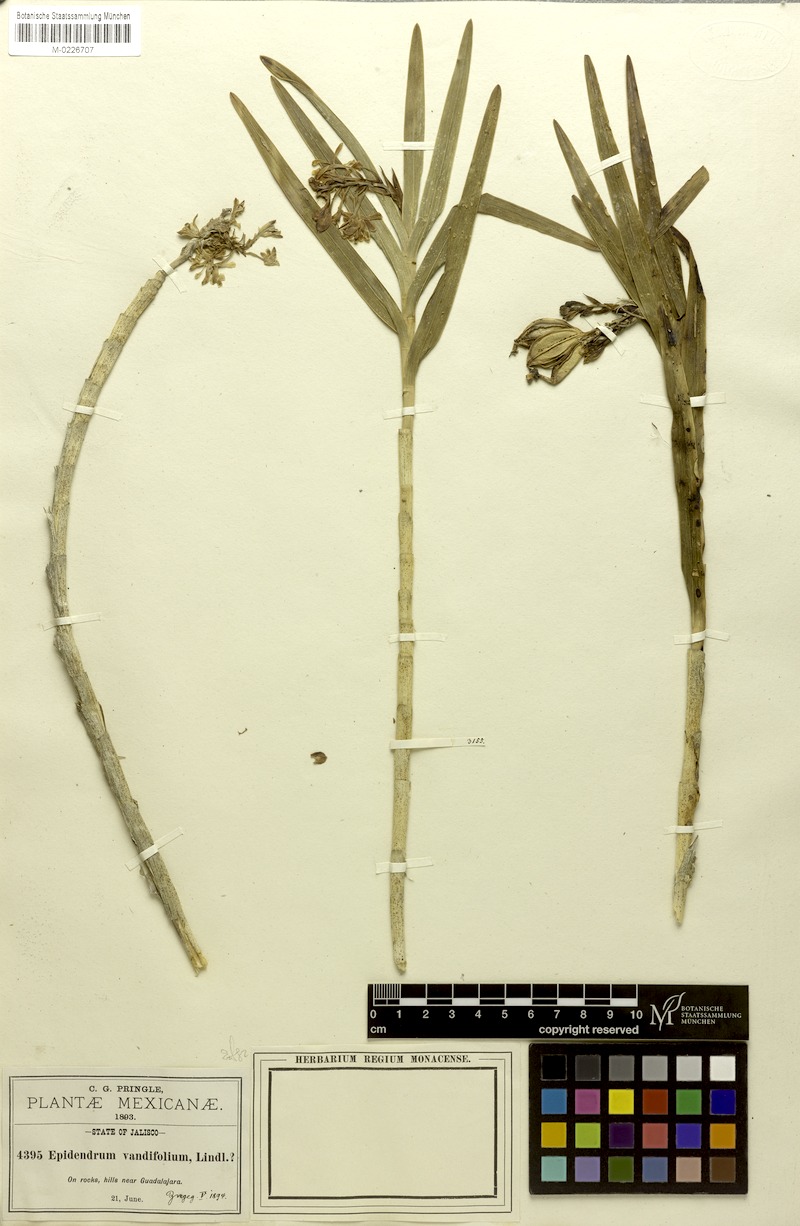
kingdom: Plantae
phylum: Tracheophyta
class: Liliopsida
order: Asparagales
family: Orchidaceae
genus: Epidendrum
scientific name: Epidendrum rosilloi
